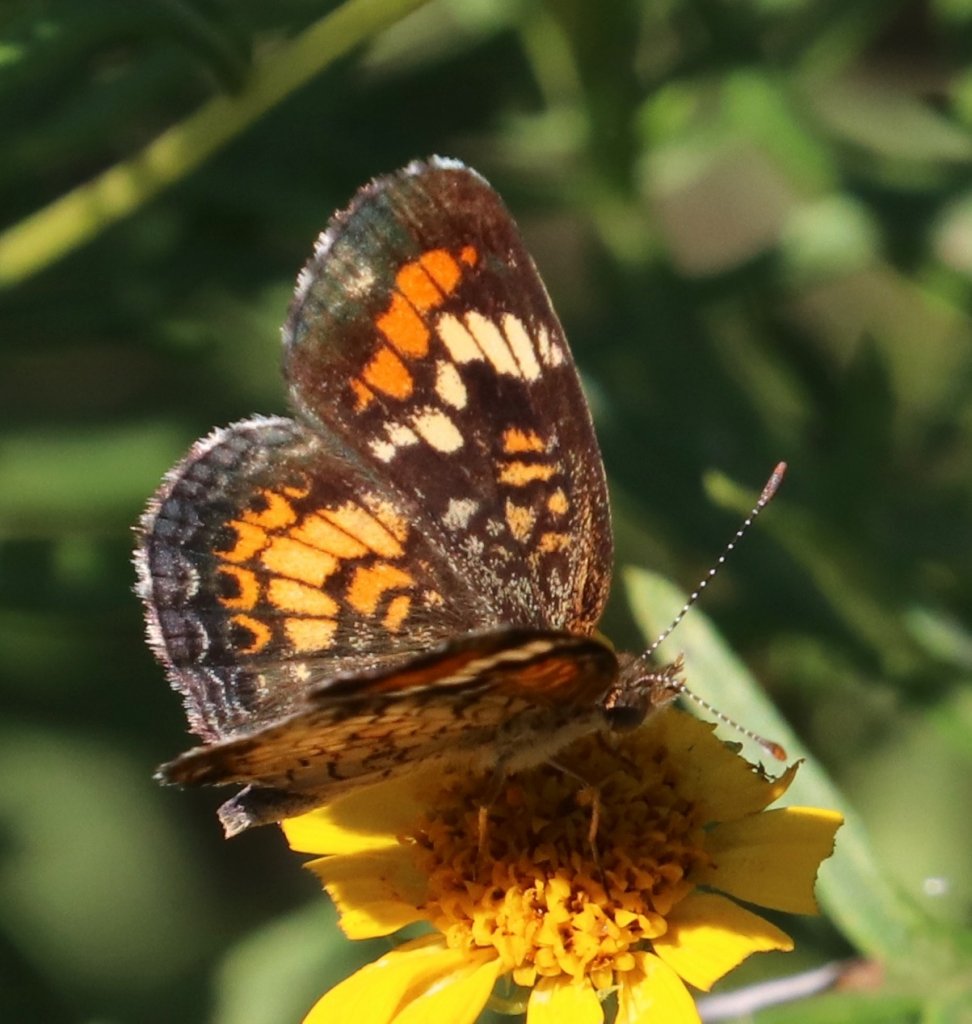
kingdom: Animalia
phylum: Arthropoda
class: Insecta
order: Lepidoptera
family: Nymphalidae
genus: Phyciodes
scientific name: Phyciodes phaon
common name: Phaon Crescent
